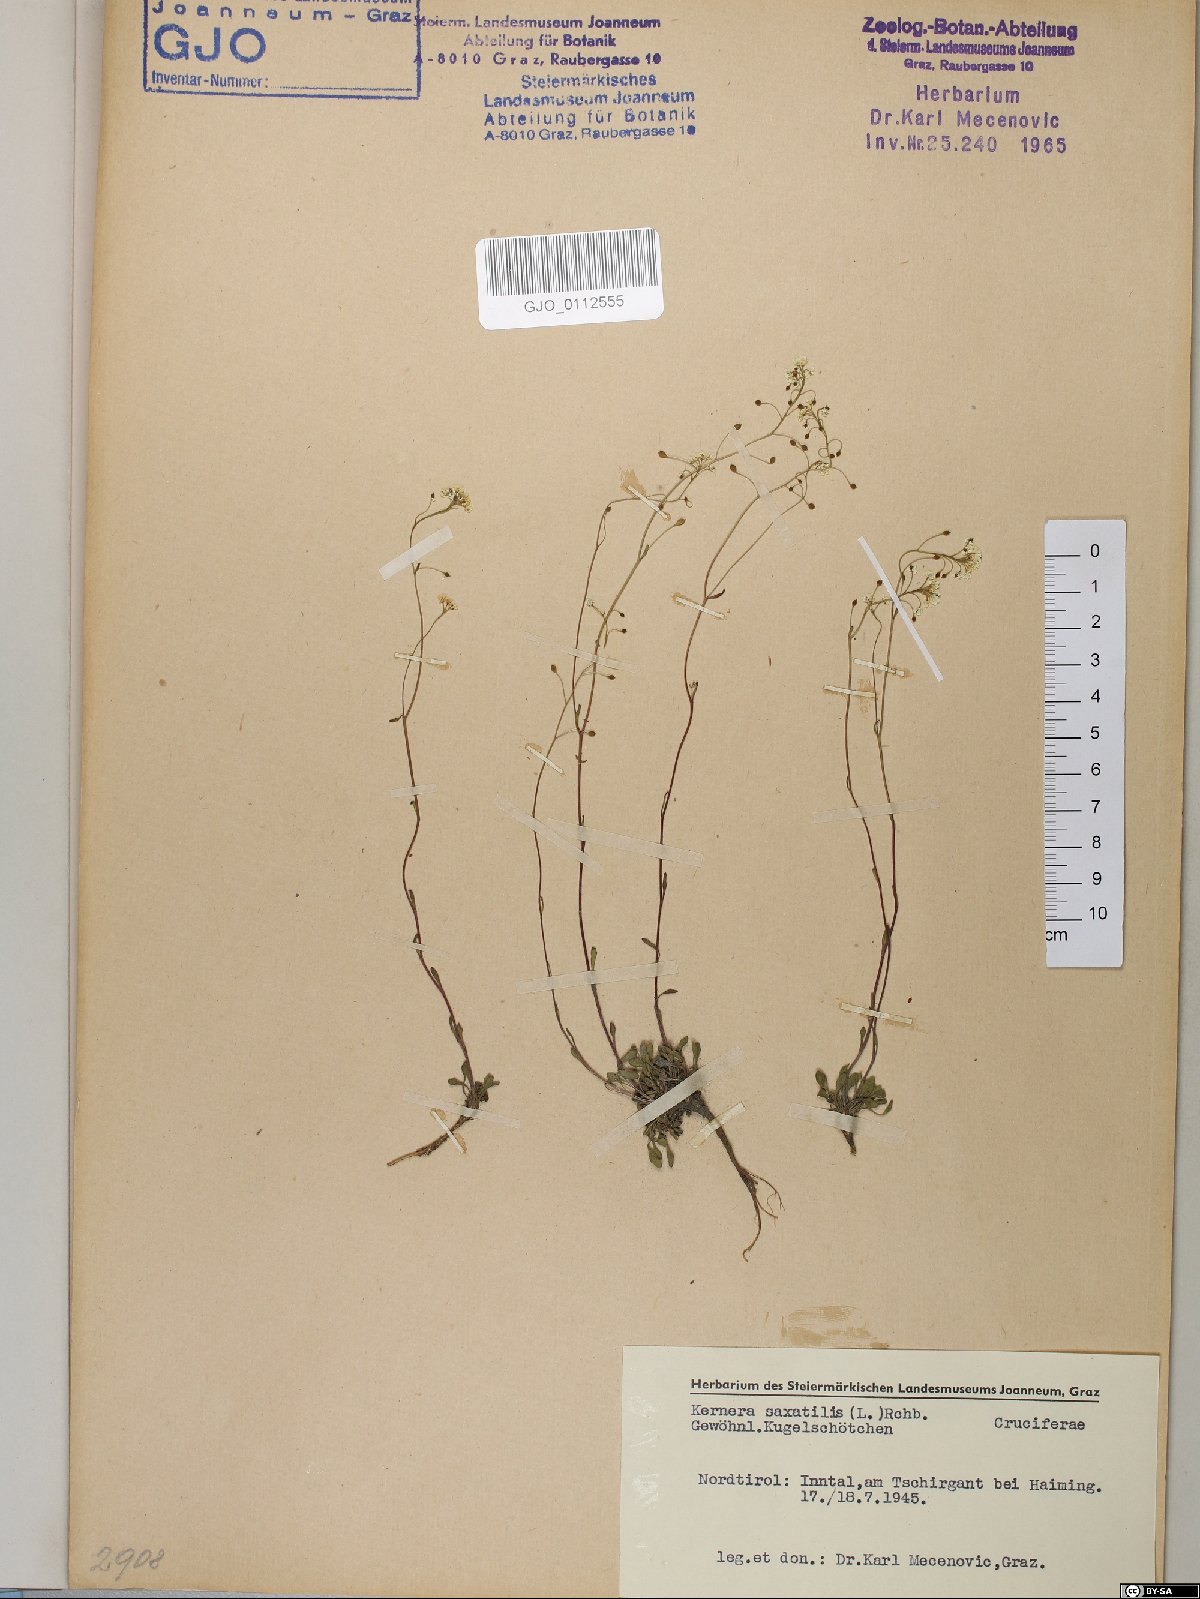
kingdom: Plantae
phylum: Tracheophyta
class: Magnoliopsida
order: Brassicales
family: Brassicaceae
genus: Kernera
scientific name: Kernera saxatilis
